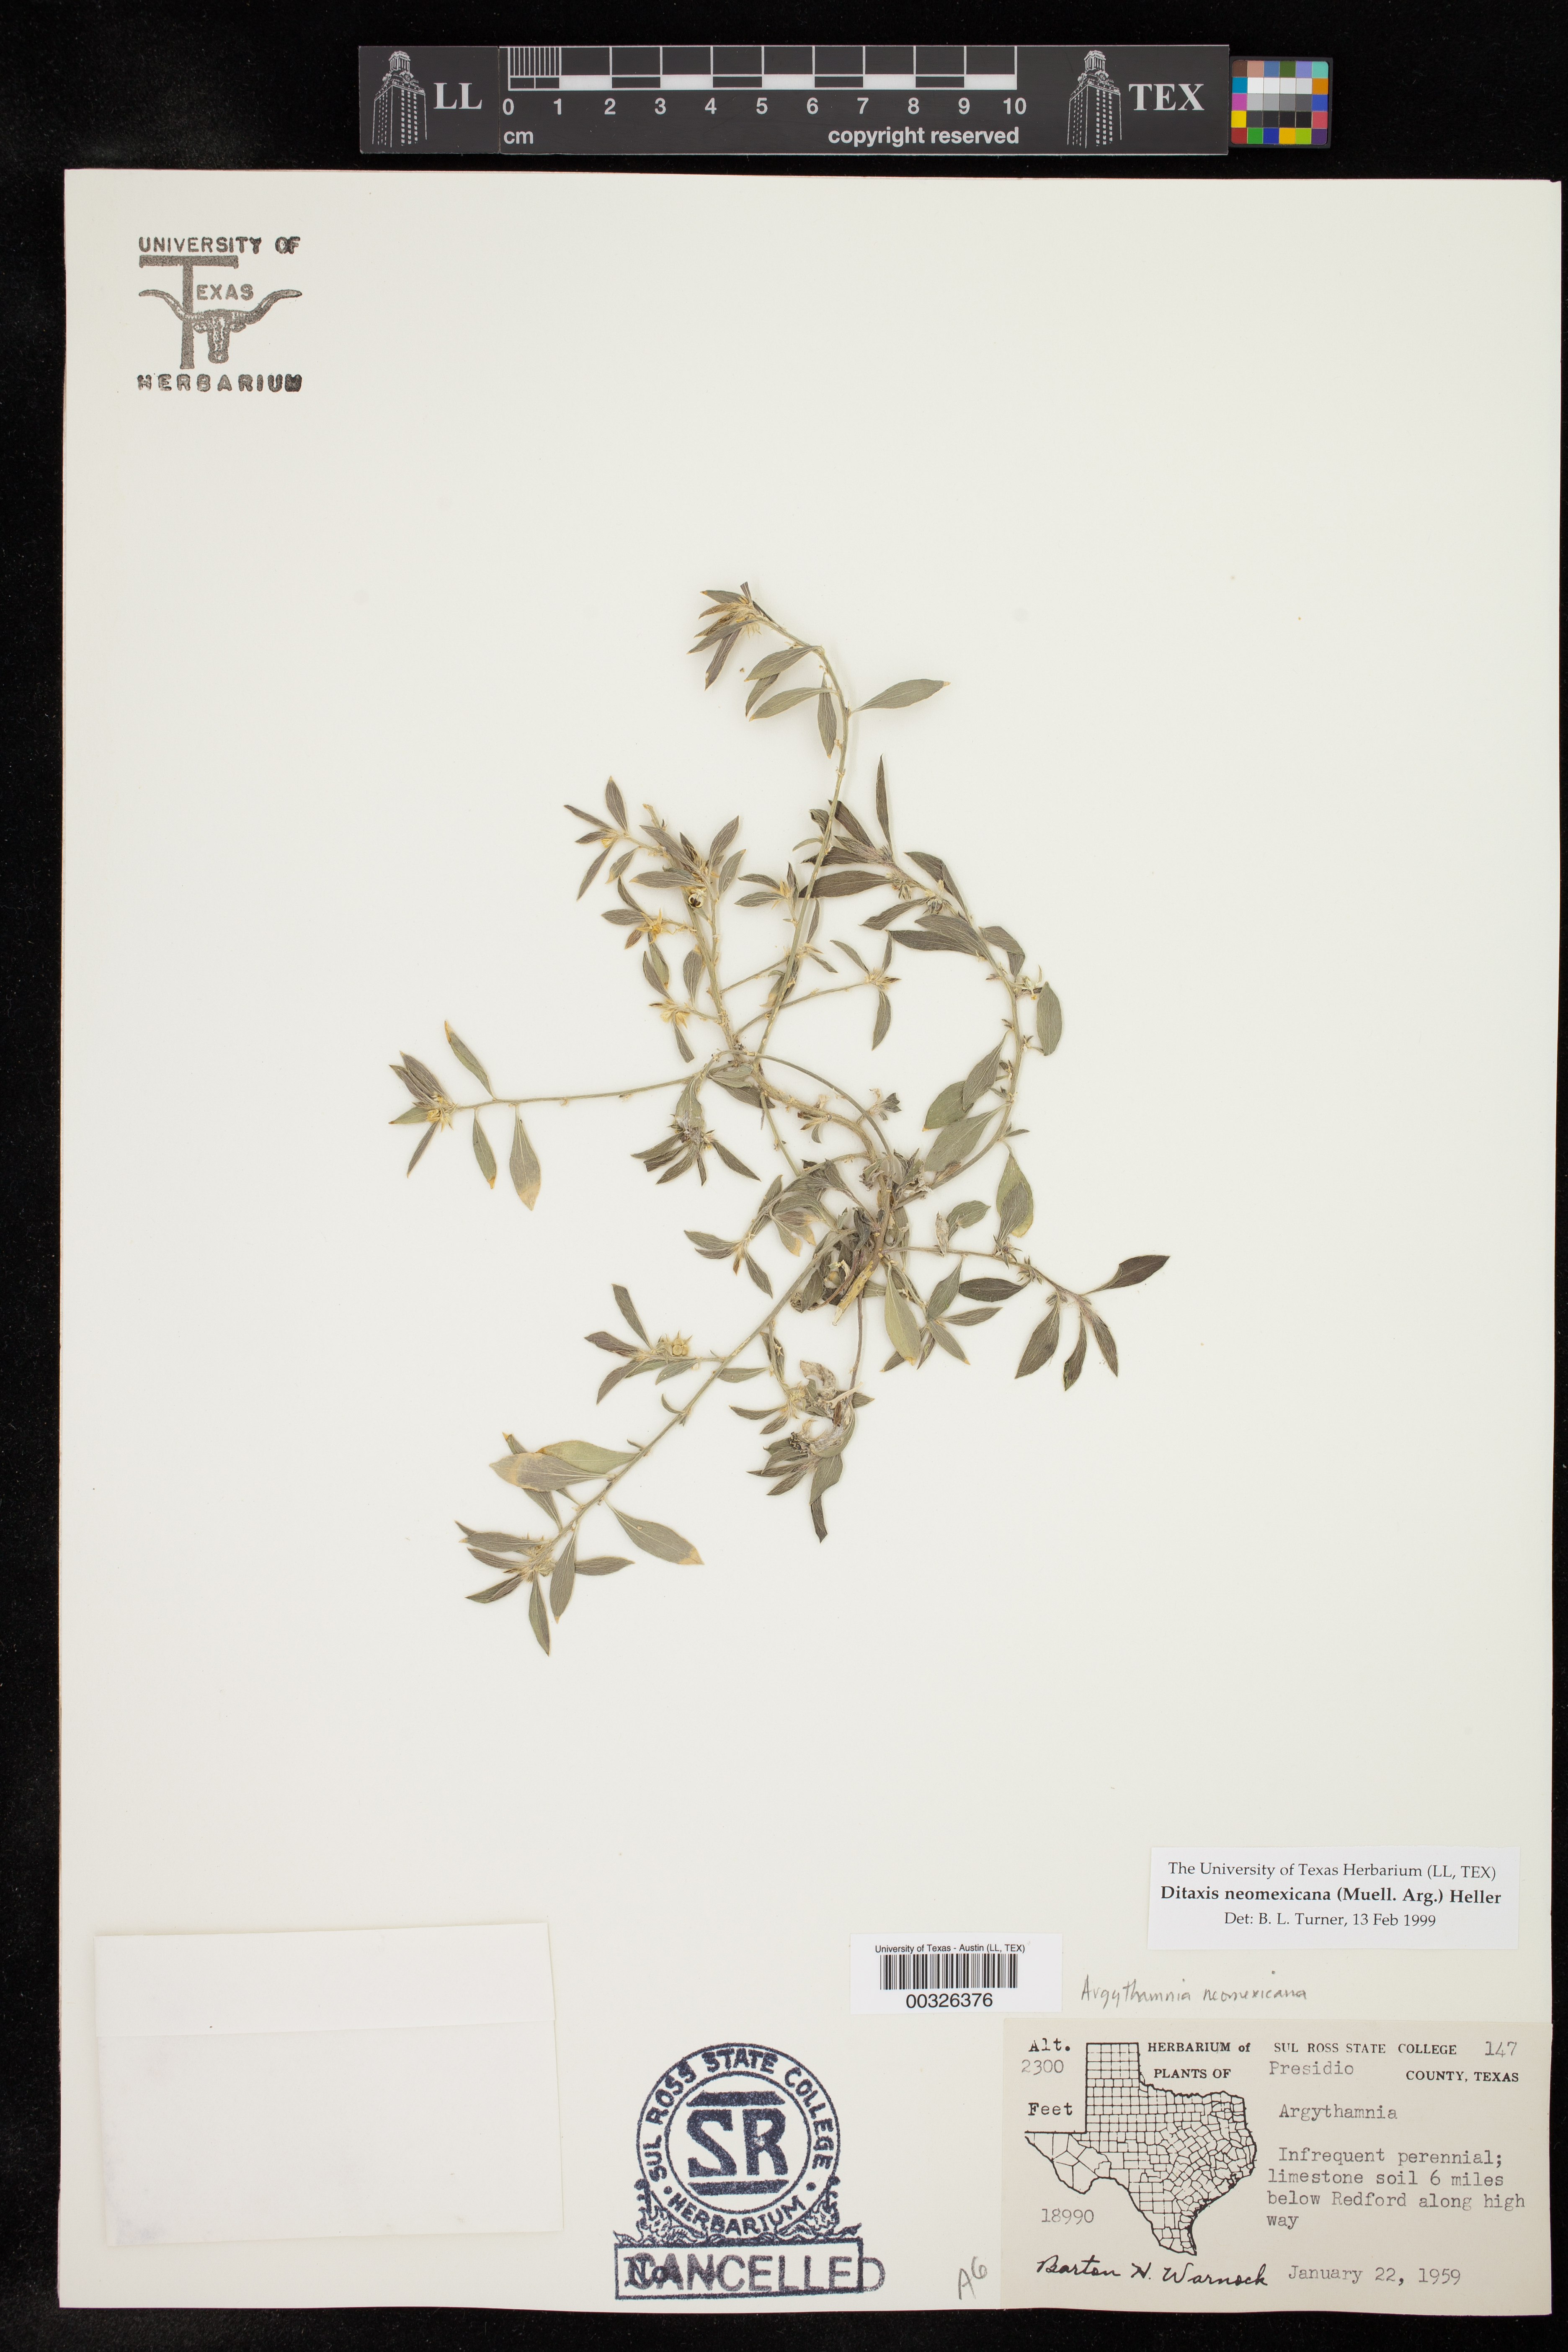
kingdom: Plantae
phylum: Tracheophyta
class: Magnoliopsida
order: Malpighiales
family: Euphorbiaceae
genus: Ditaxis
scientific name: Ditaxis serrata
